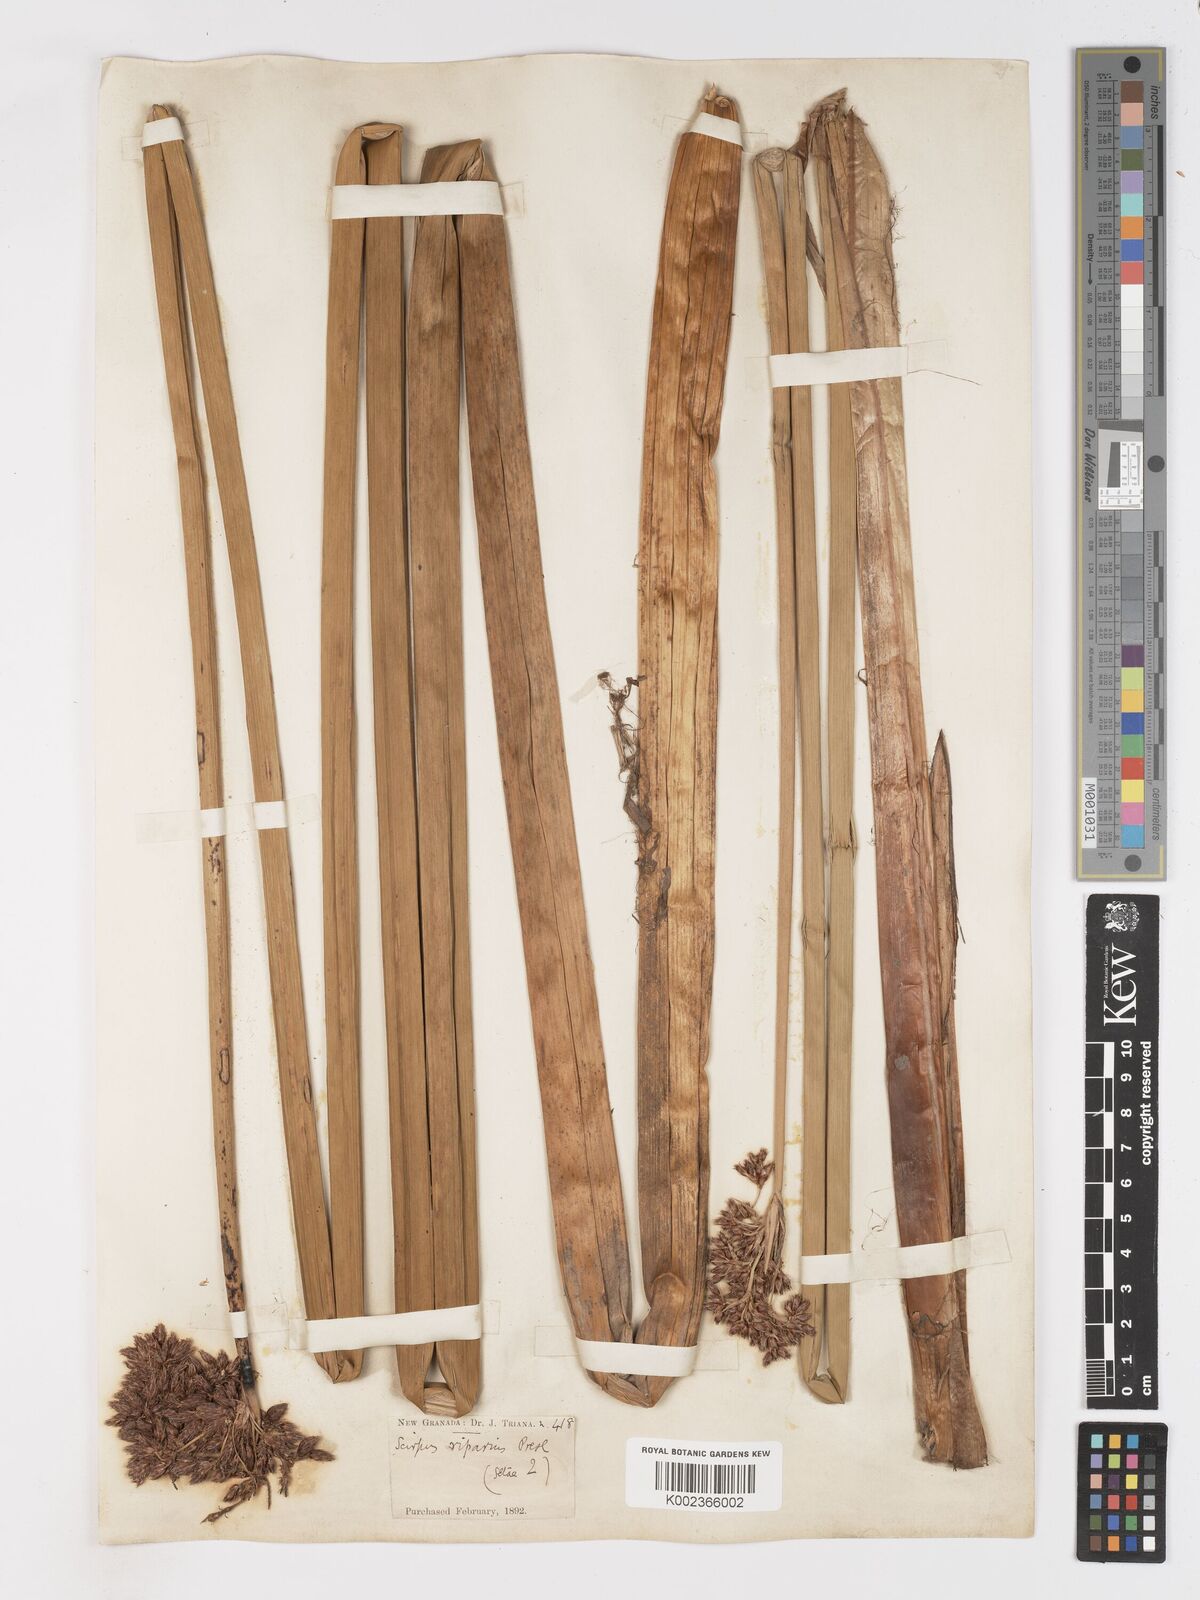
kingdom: Plantae
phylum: Tracheophyta
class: Liliopsida
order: Poales
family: Cyperaceae
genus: Schoenoplectus
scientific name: Schoenoplectus californicus
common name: California bulrush
